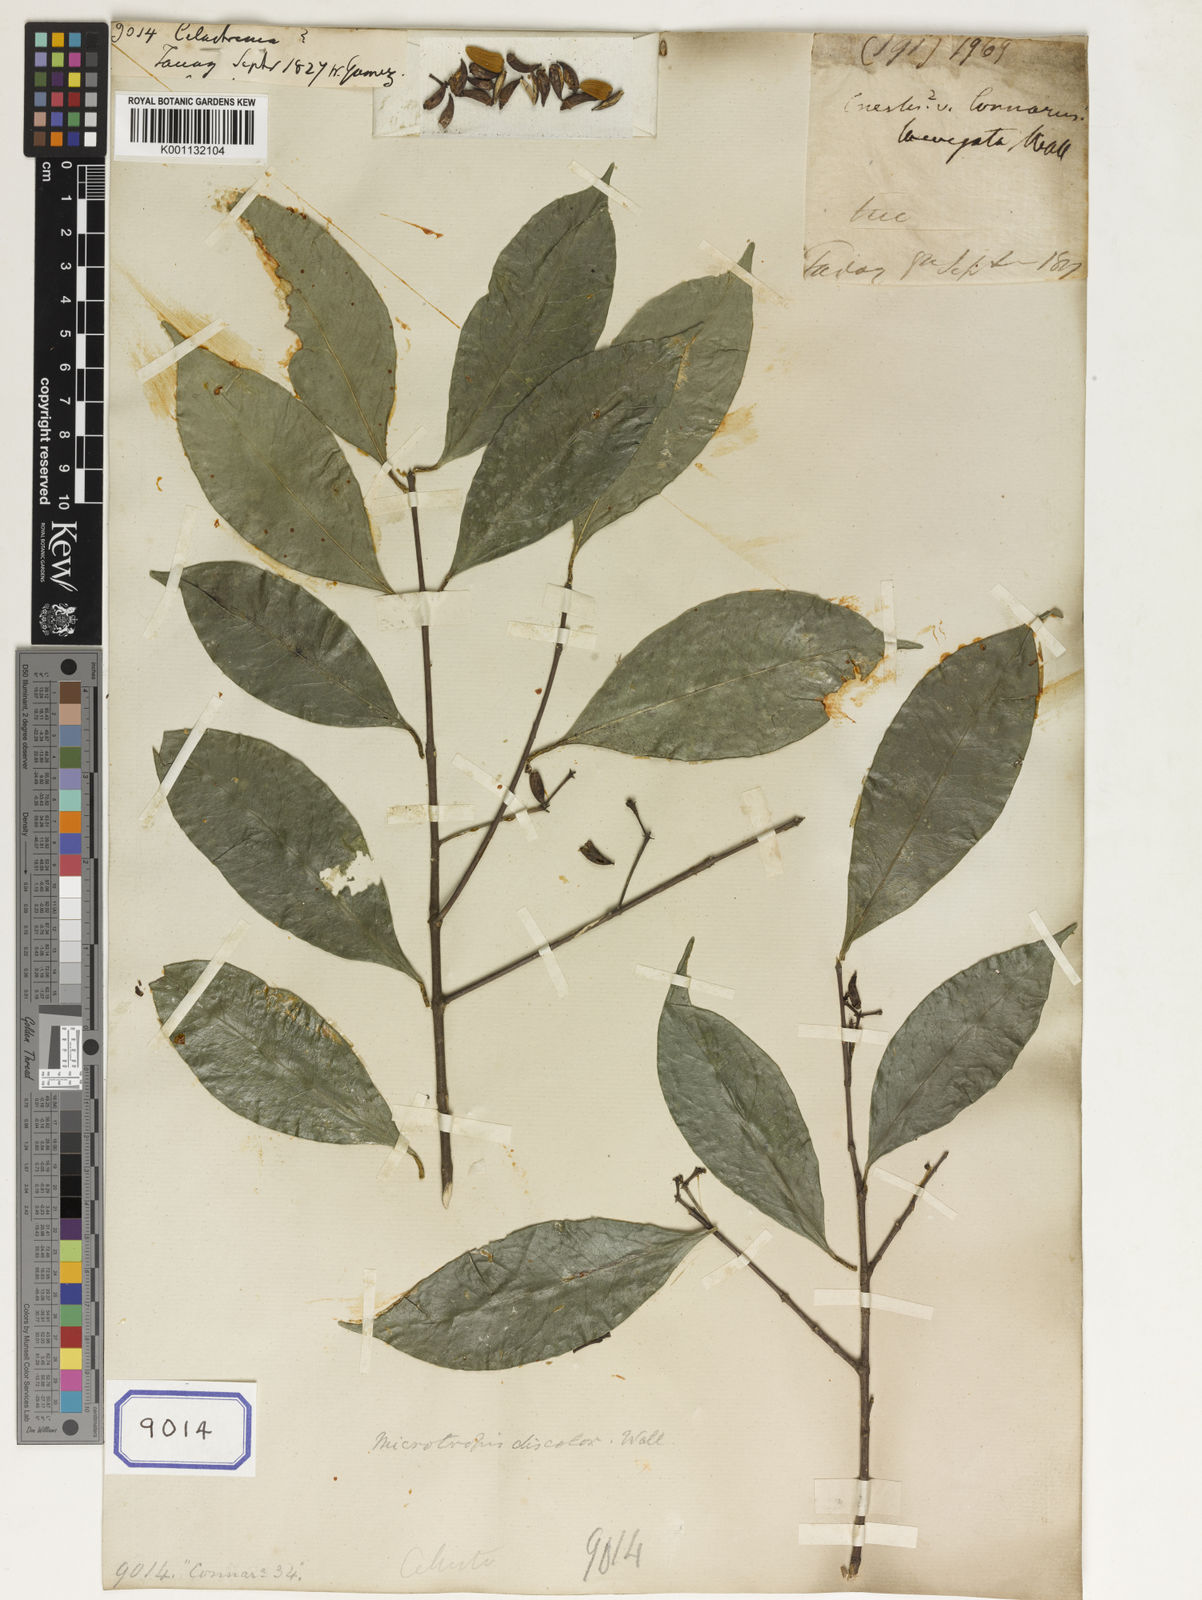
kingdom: Plantae
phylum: Tracheophyta
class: Magnoliopsida
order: Celastrales
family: Celastraceae
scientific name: Celastraceae
